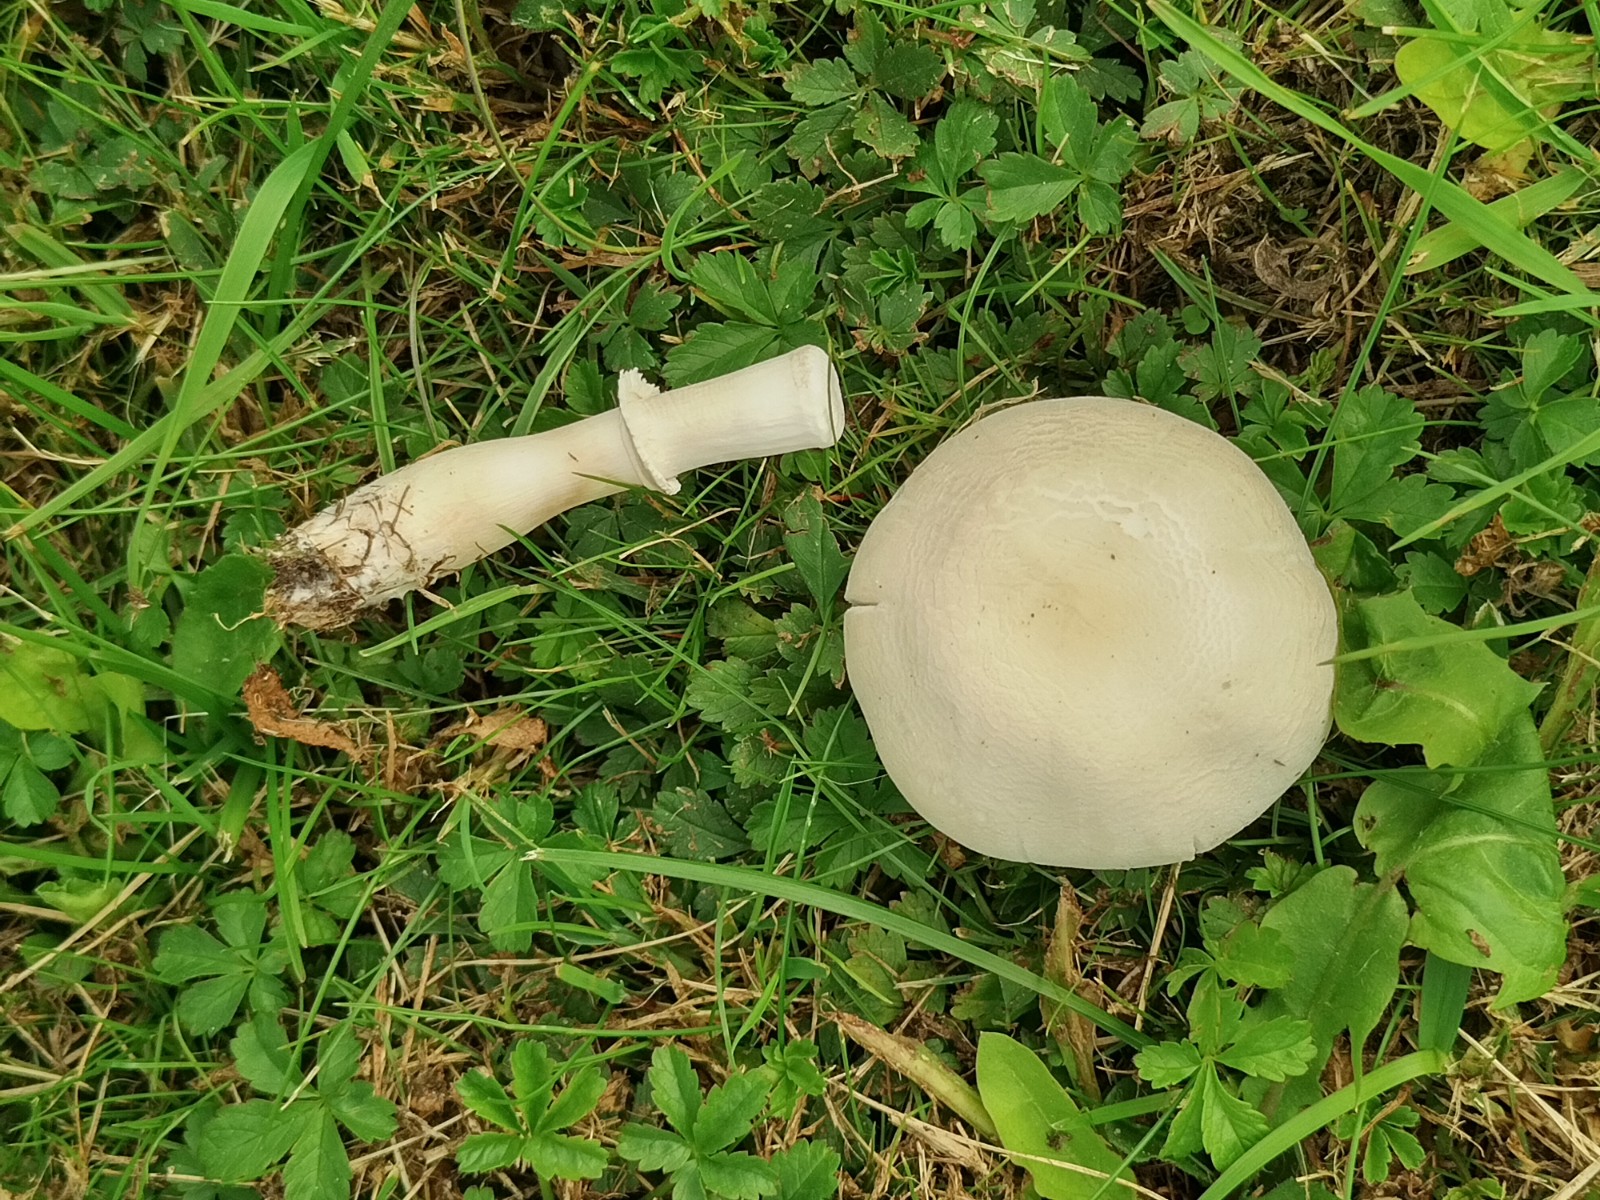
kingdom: Fungi
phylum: Basidiomycota
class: Agaricomycetes
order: Agaricales
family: Agaricaceae
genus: Leucoagaricus
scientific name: Leucoagaricus leucothites
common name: rosabladet silkehat
